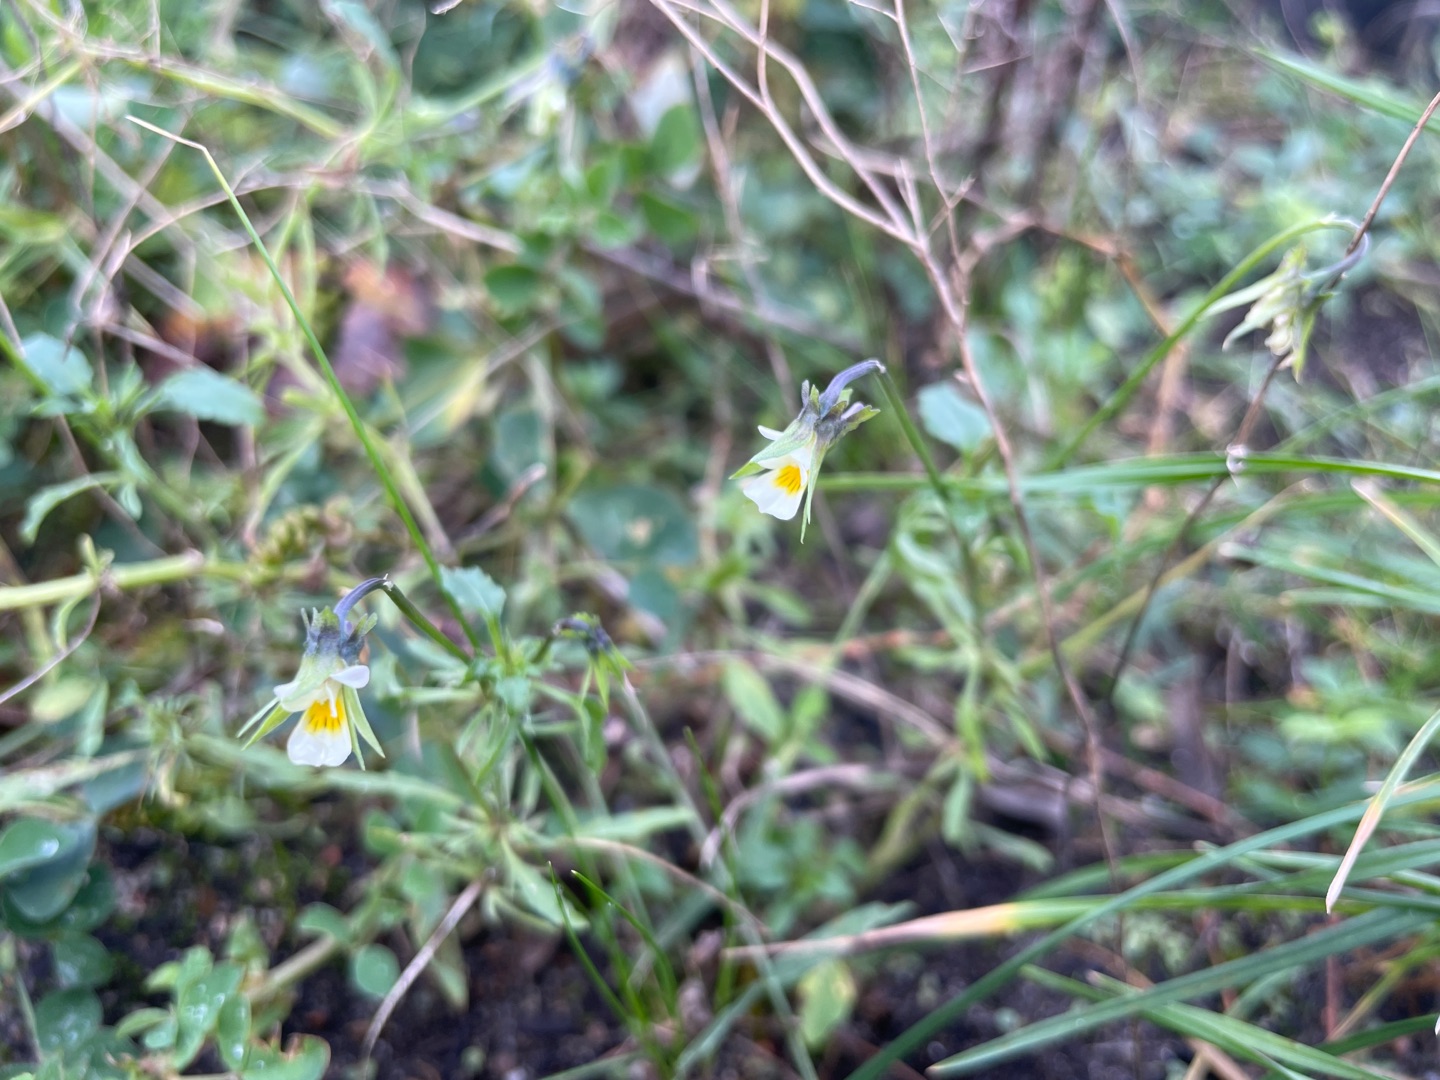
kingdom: Plantae
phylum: Tracheophyta
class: Magnoliopsida
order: Malpighiales
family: Violaceae
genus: Viola
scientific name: Viola arvensis
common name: Ager-stedmoderblomst
